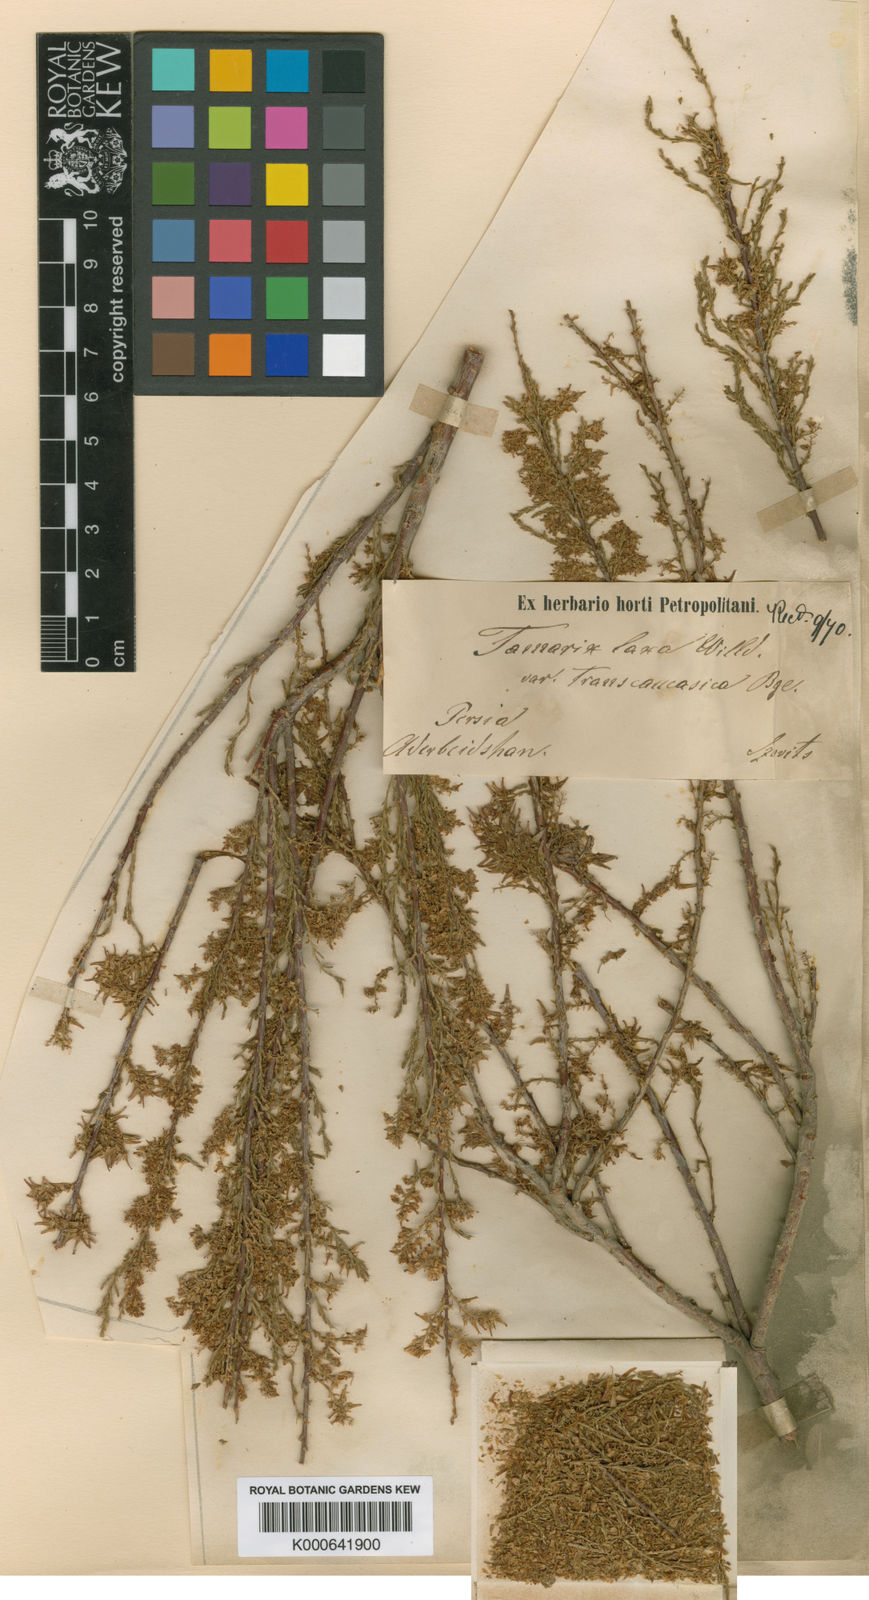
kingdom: Plantae
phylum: Tracheophyta
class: Magnoliopsida
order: Caryophyllales
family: Tamaricaceae
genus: Tamarix
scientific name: Tamarix laxa
